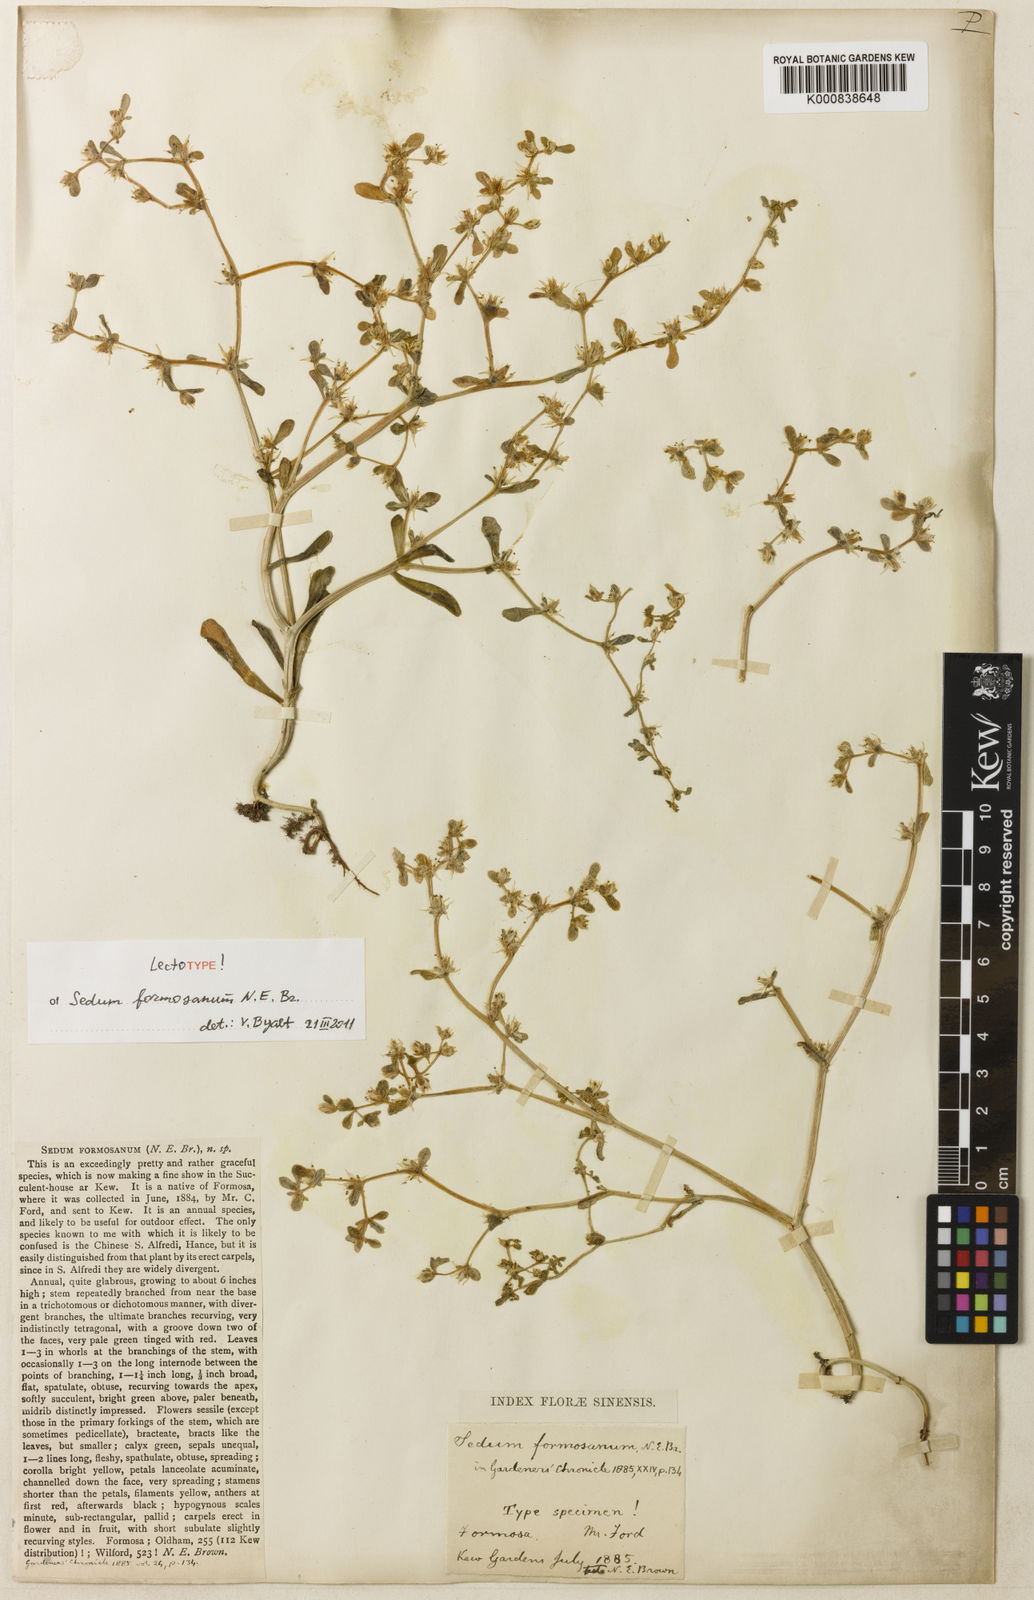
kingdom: Plantae
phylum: Tracheophyta
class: Magnoliopsida
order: Saxifragales
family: Crassulaceae
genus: Sedum
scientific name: Sedum formosanum
